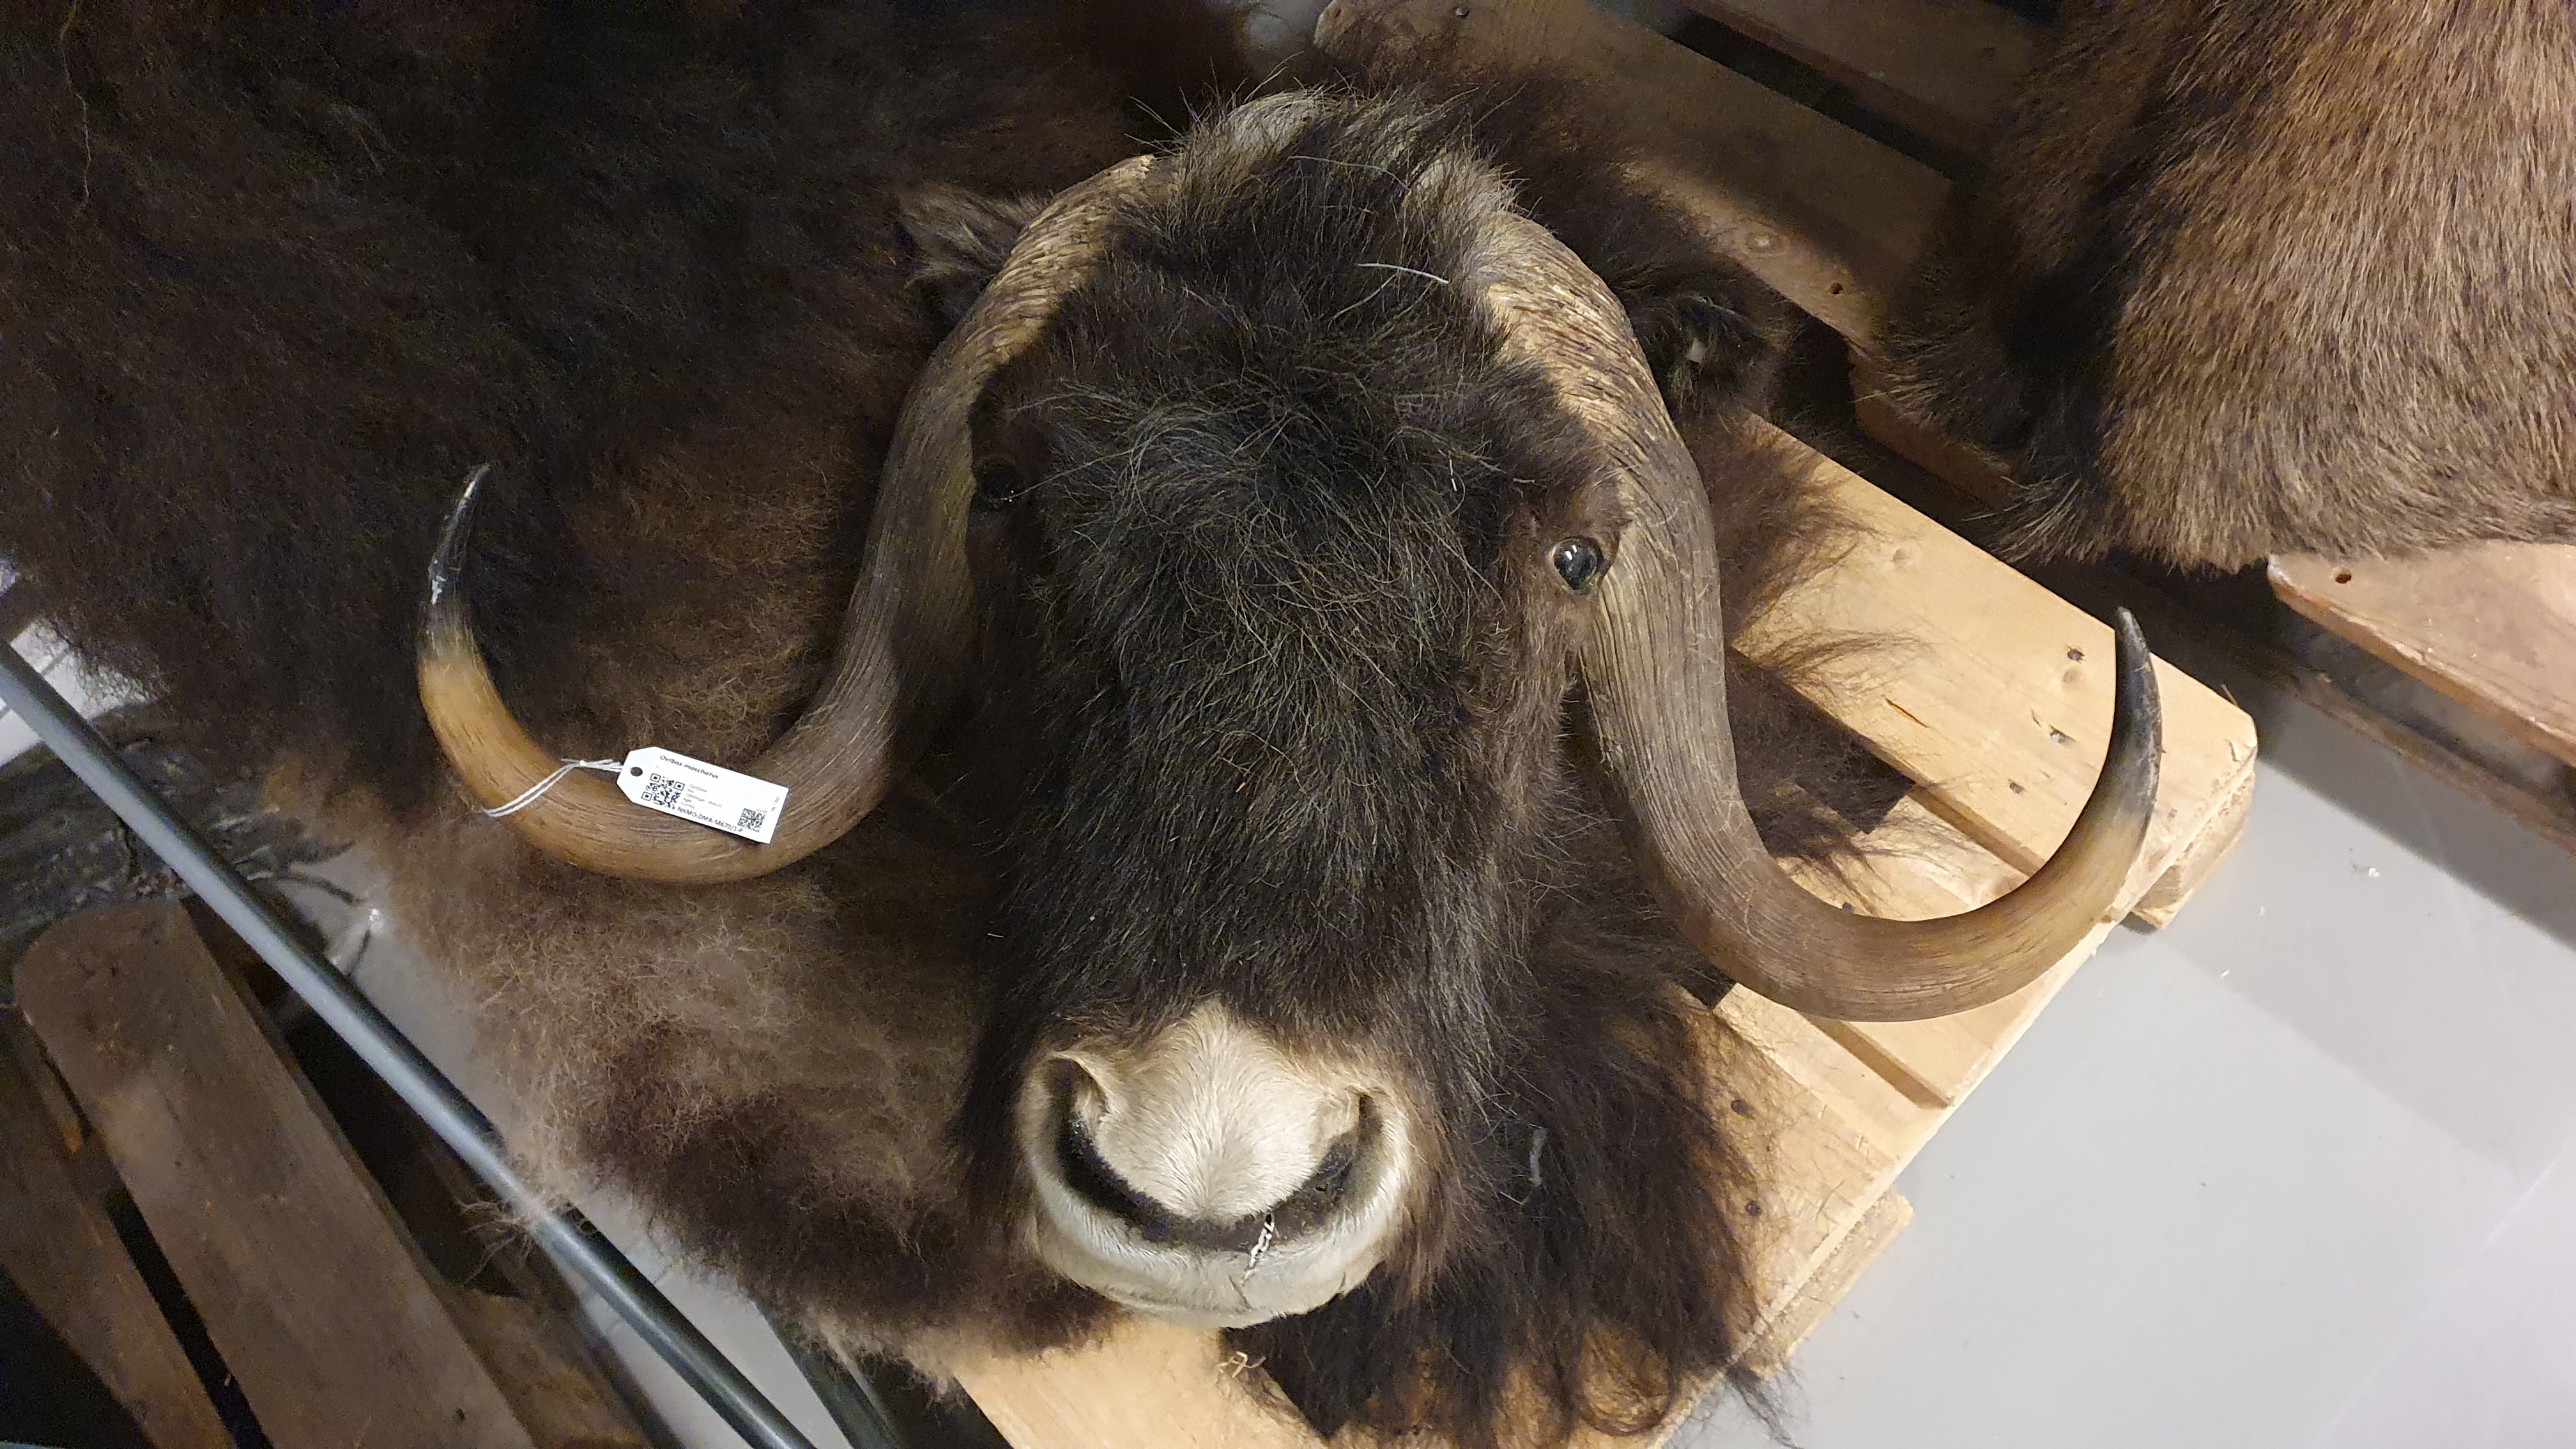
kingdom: Animalia
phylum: Chordata
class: Mammalia
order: Artiodactyla
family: Bovidae
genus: Ovibos
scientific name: Ovibos moschatus
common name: Muskox
